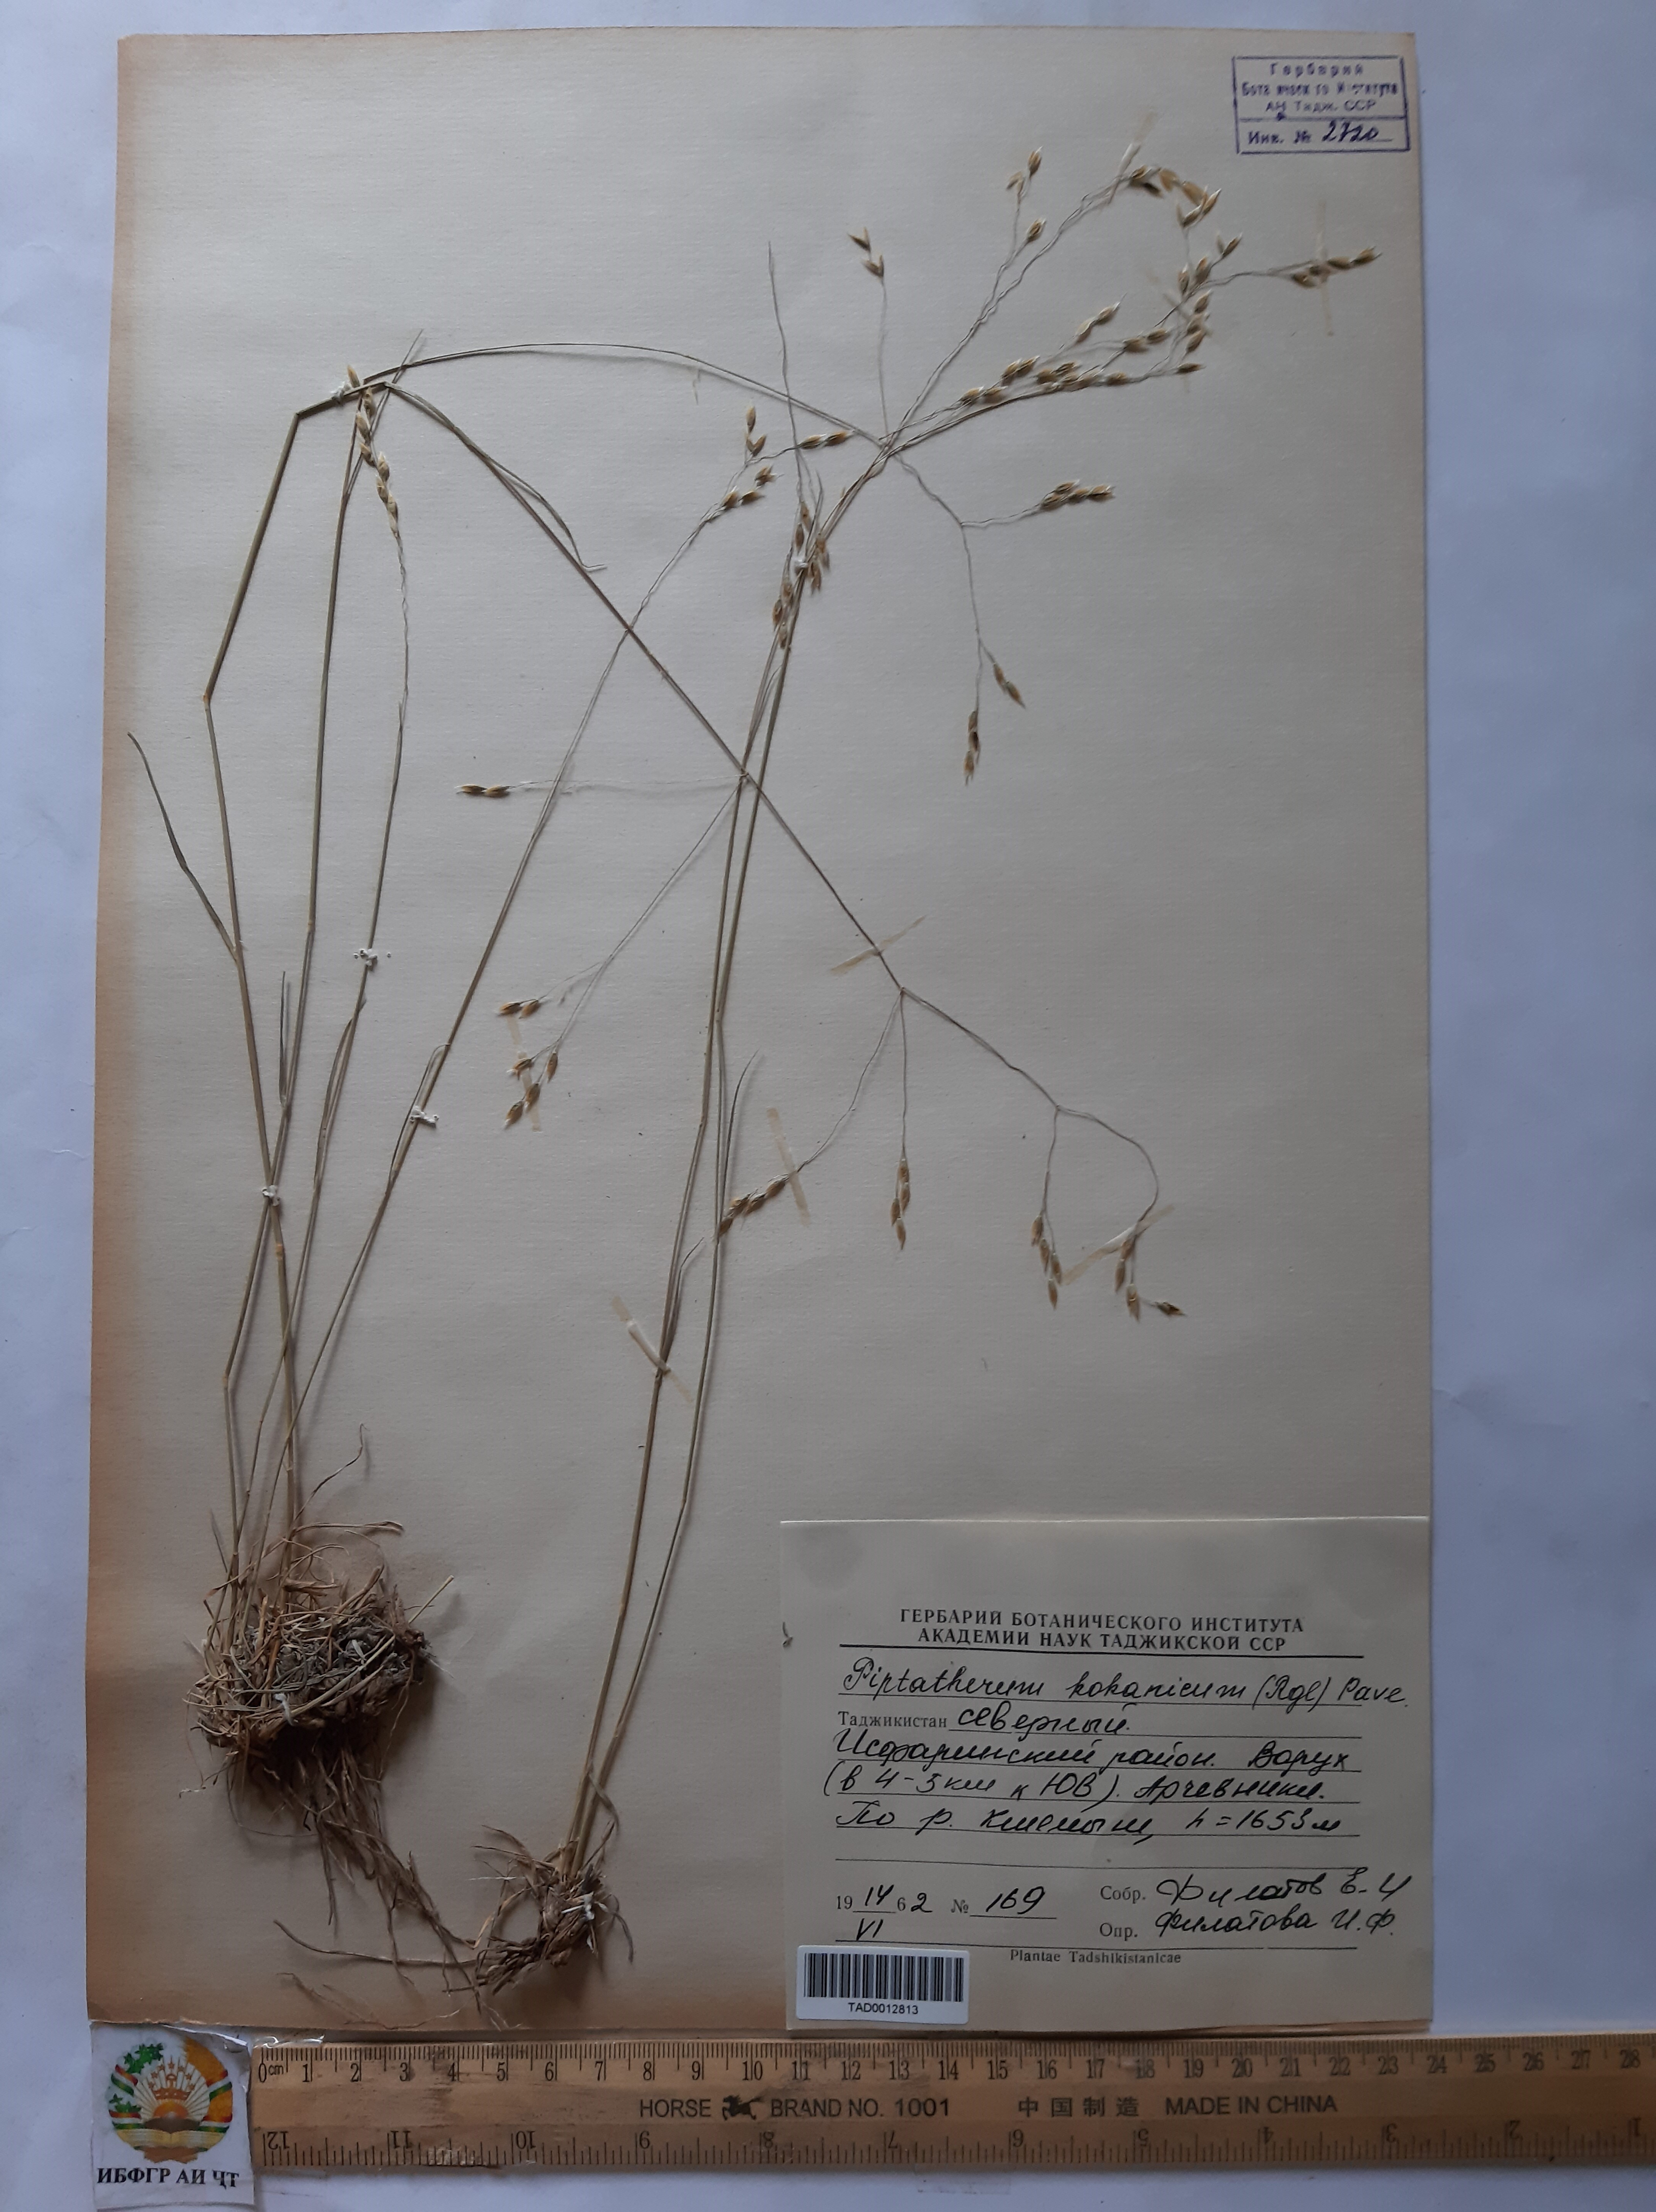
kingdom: Plantae
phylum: Tracheophyta
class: Liliopsida
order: Poales
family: Poaceae
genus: Piptatherum
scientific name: Piptatherum songaricum
